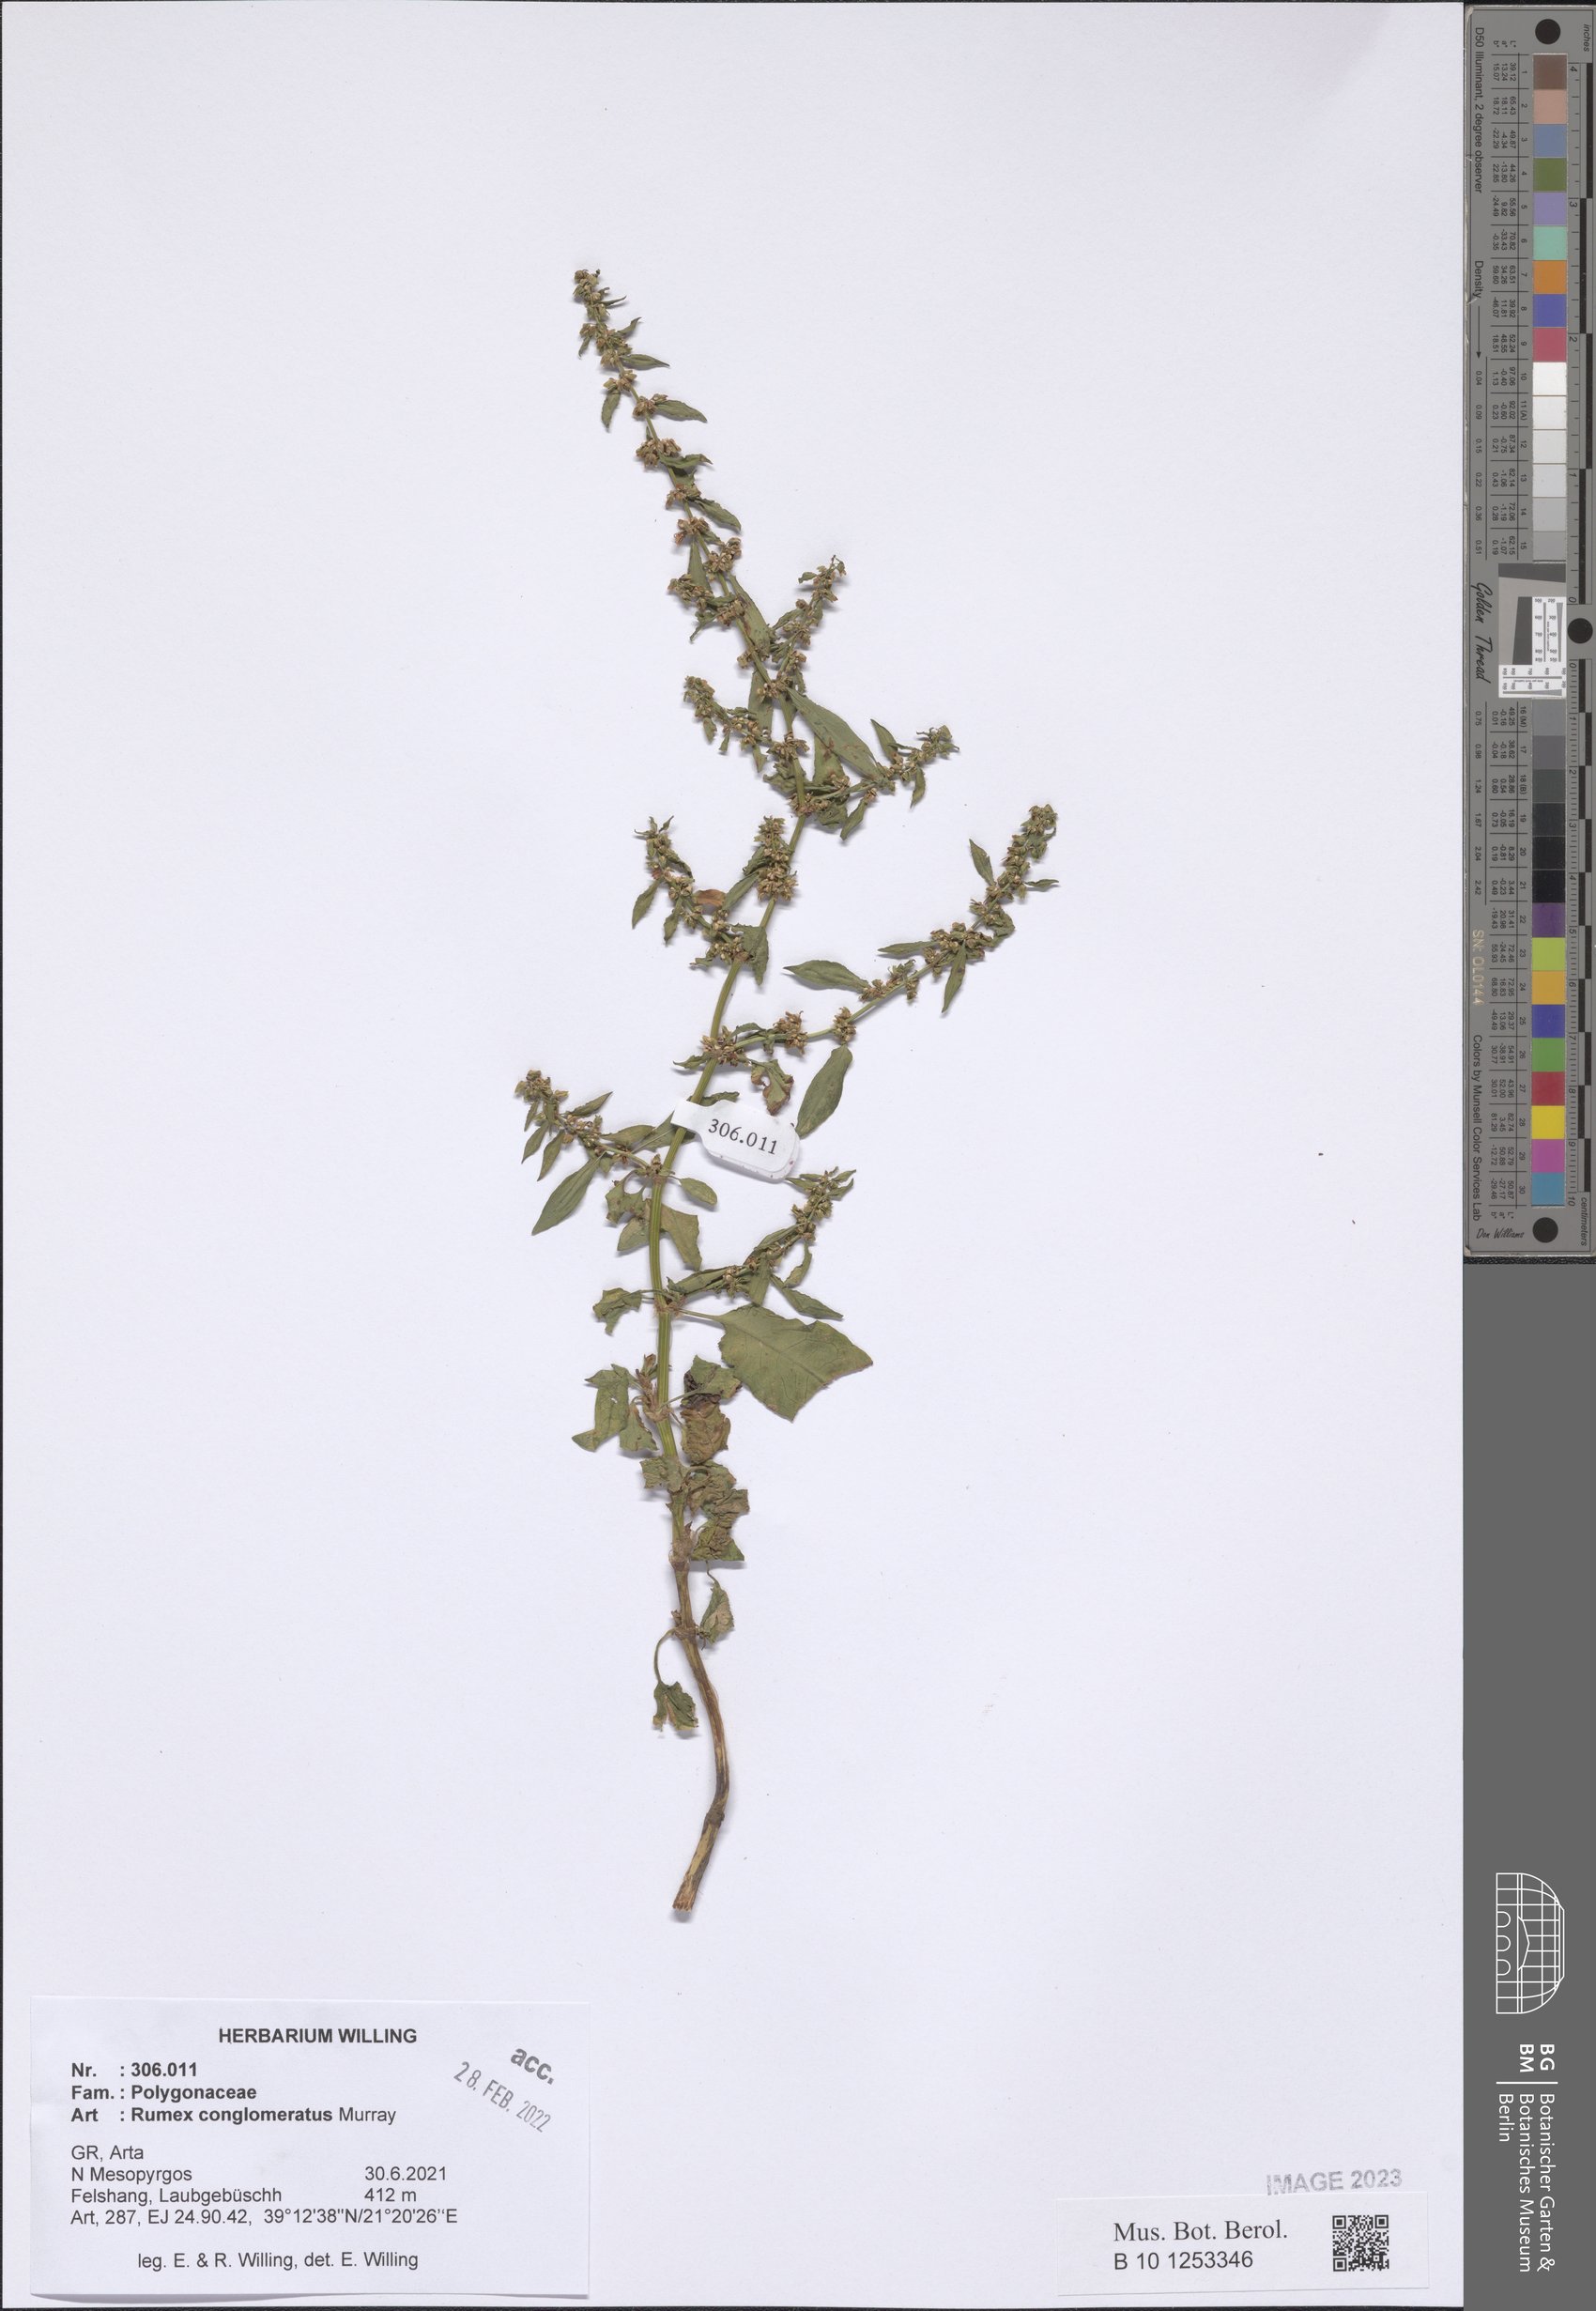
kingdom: Plantae
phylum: Tracheophyta
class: Magnoliopsida
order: Caryophyllales
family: Polygonaceae
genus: Rumex
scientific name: Rumex conglomeratus
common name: Clustered dock
